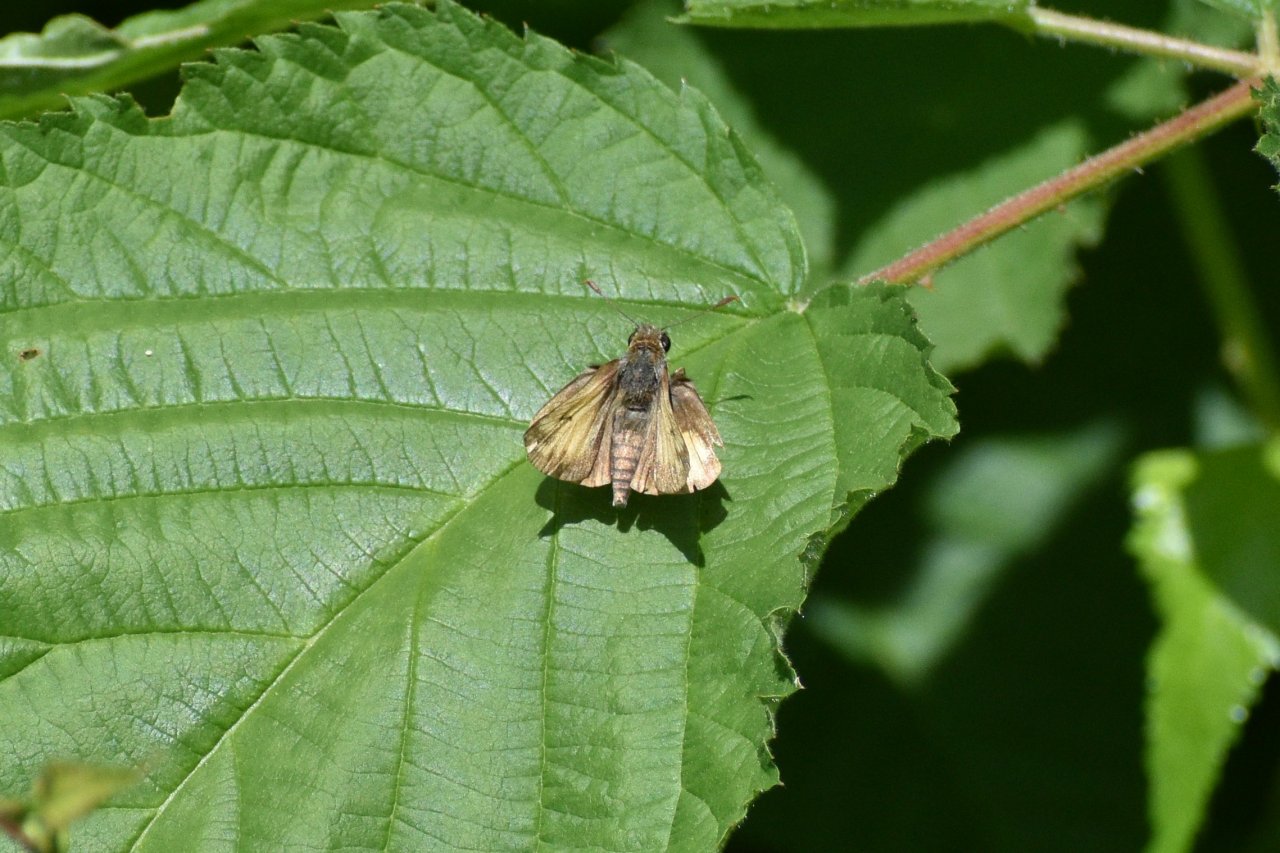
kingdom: Animalia
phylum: Arthropoda
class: Insecta
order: Lepidoptera
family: Hesperiidae
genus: Lon
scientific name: Lon hobomok
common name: Hobomok Skipper
